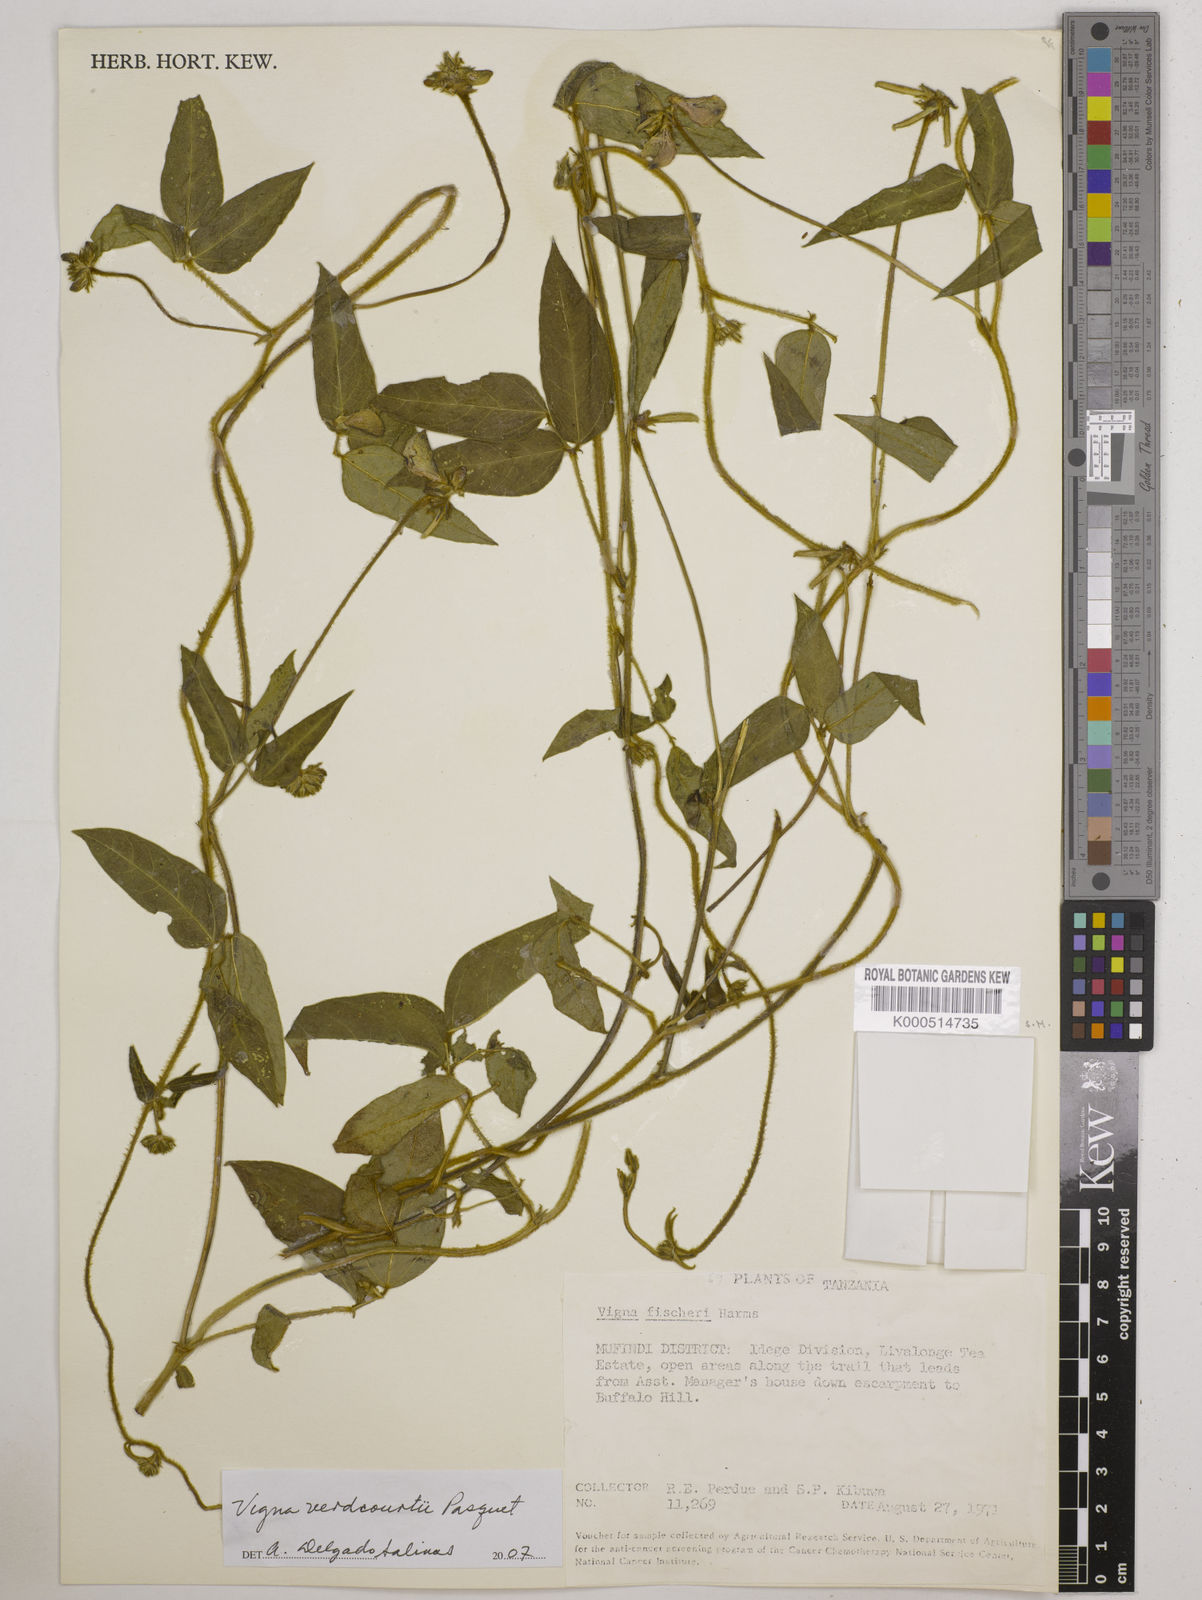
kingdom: Plantae
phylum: Tracheophyta
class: Magnoliopsida
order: Fabales
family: Fabaceae
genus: Vigna
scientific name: Vigna
